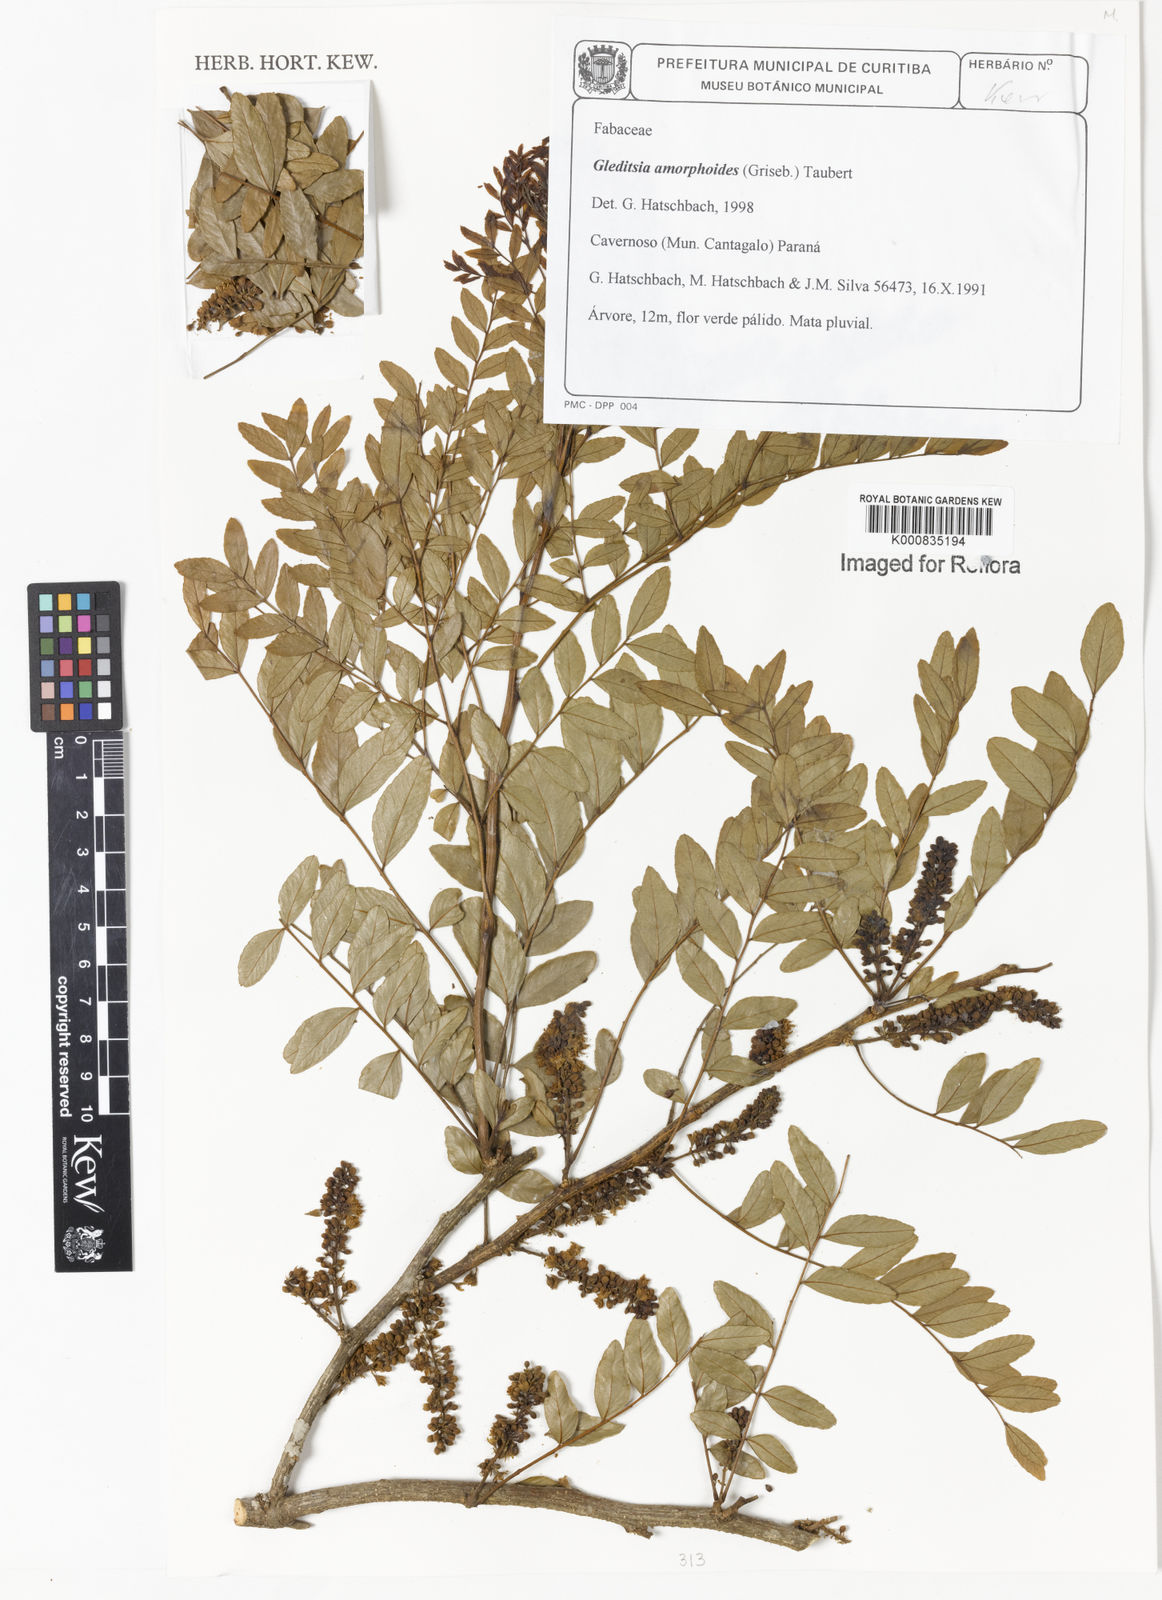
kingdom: Plantae
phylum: Tracheophyta
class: Magnoliopsida
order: Fabales
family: Fabaceae
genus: Gleditsia
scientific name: Gleditsia amorphoides
